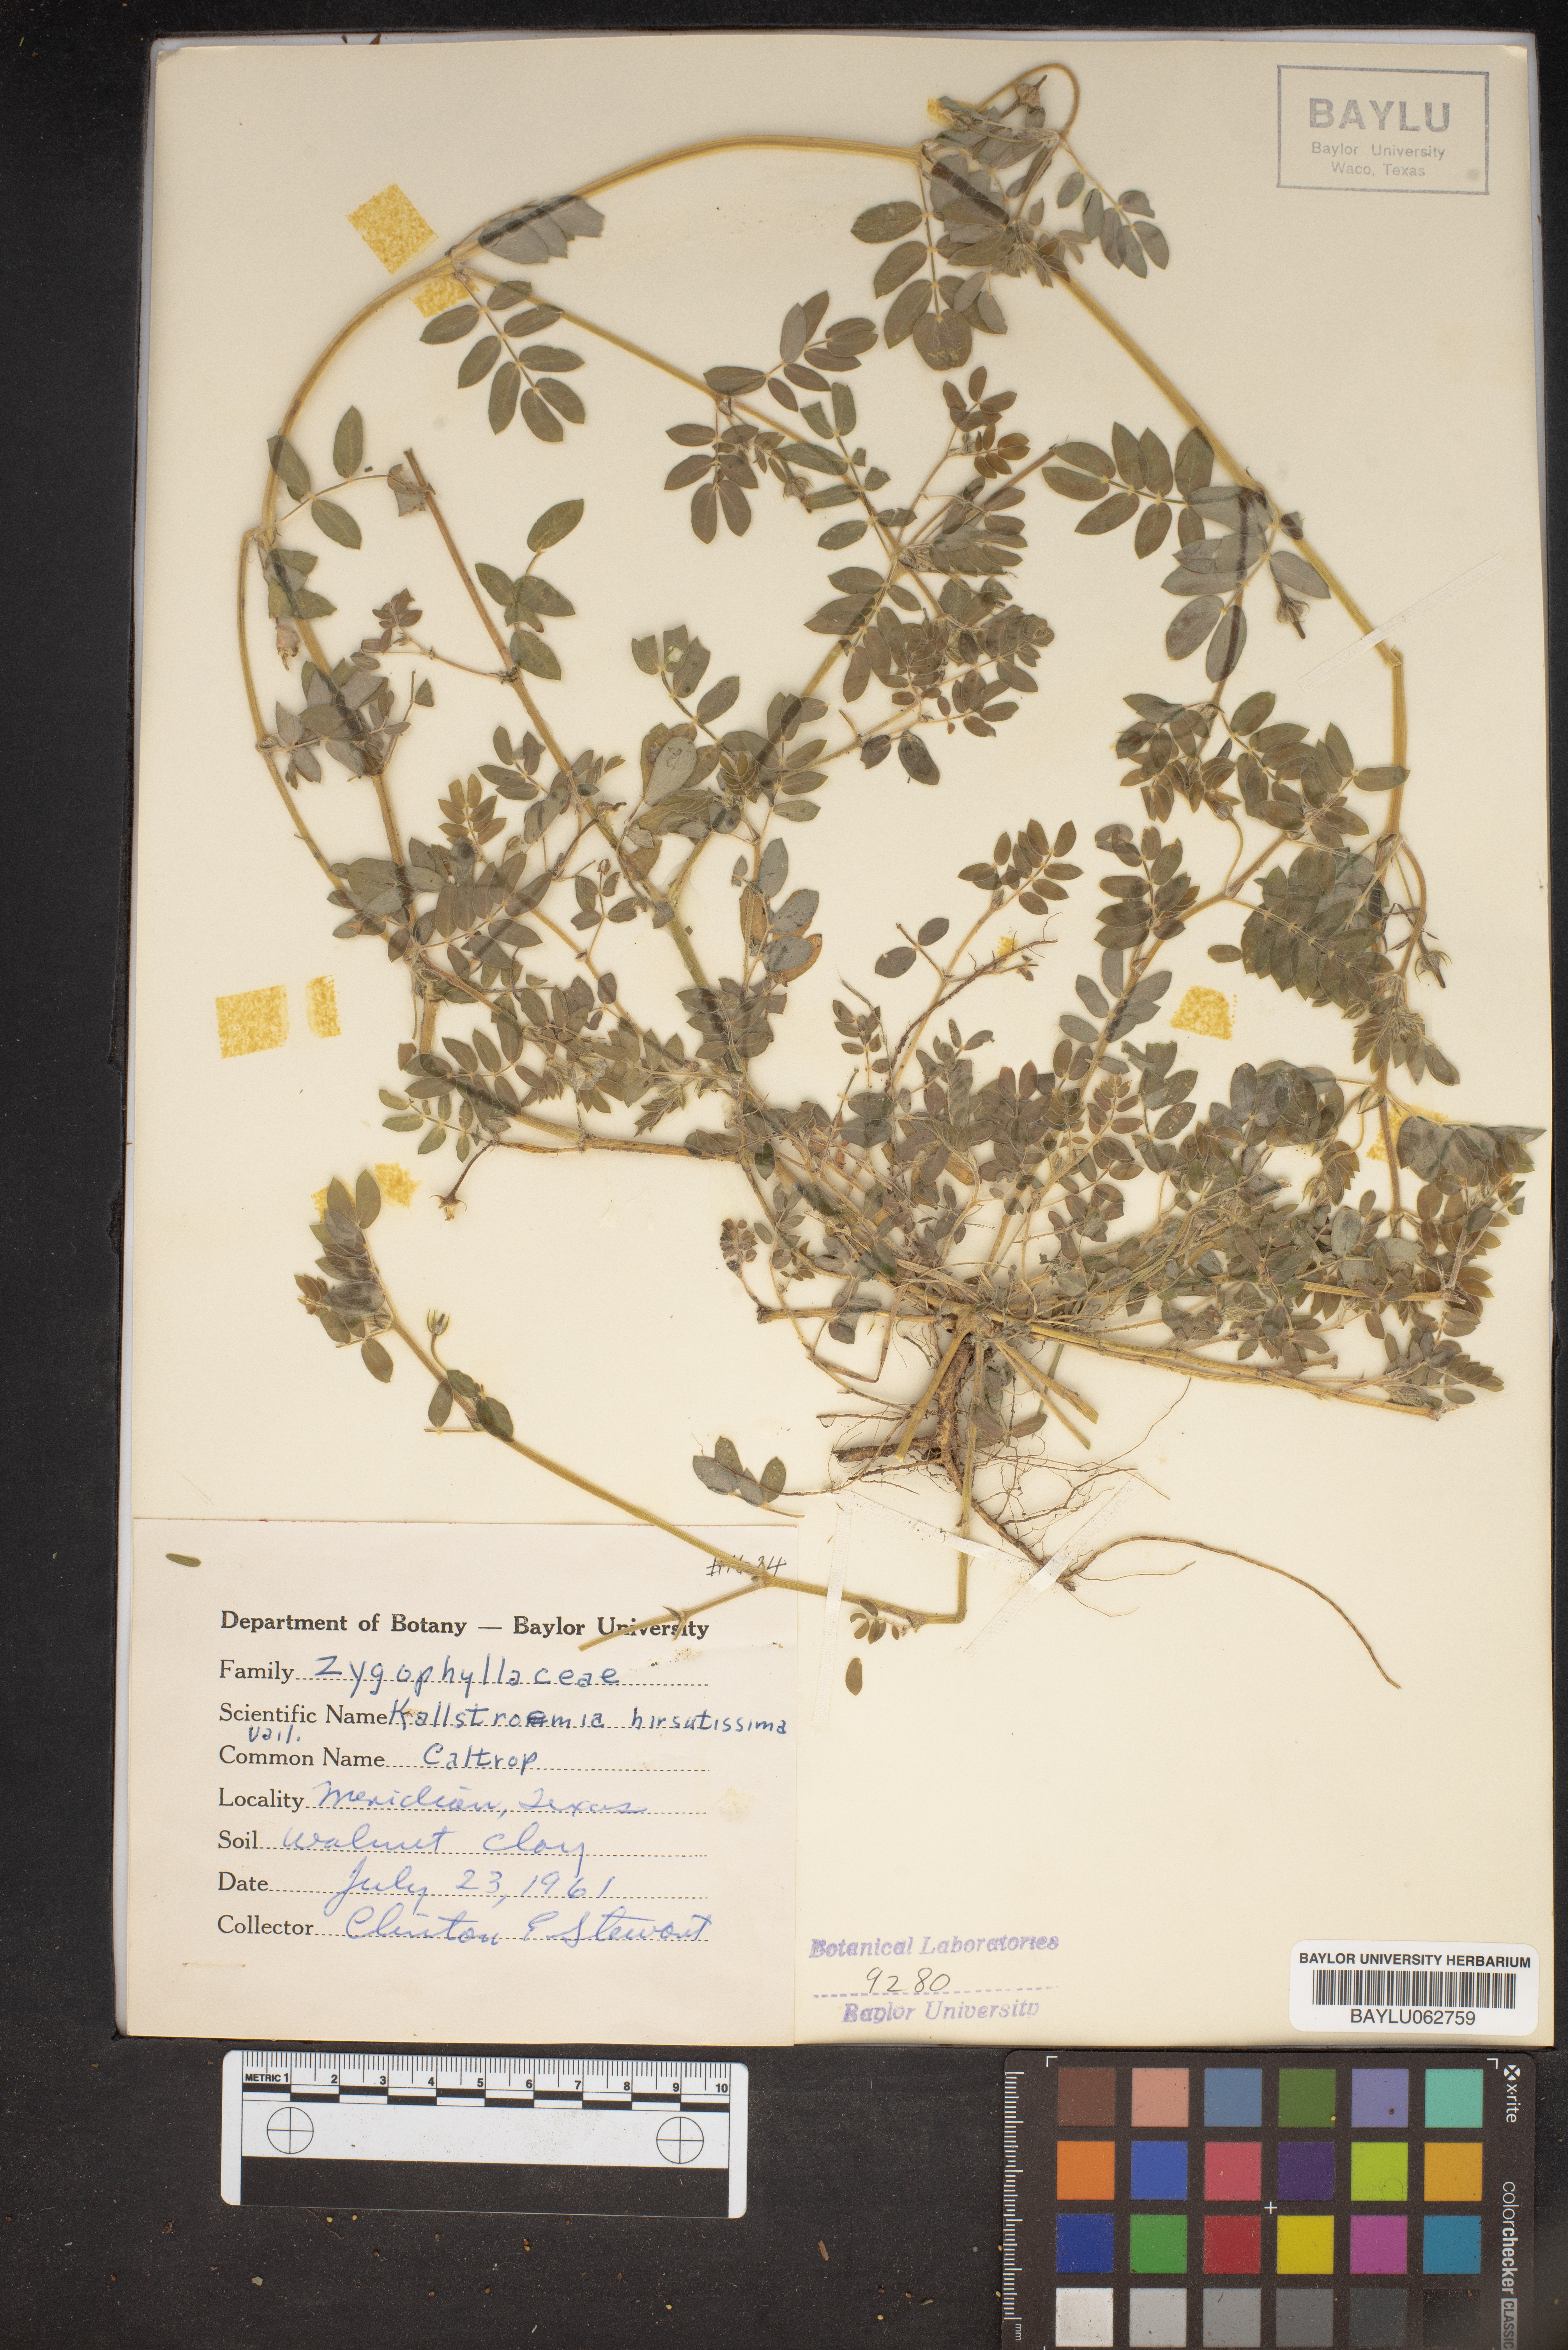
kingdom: Plantae
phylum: Tracheophyta
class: Magnoliopsida
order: Zygophyllales
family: Zygophyllaceae
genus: Kallstroemia
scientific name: Kallstroemia hirsutissima
